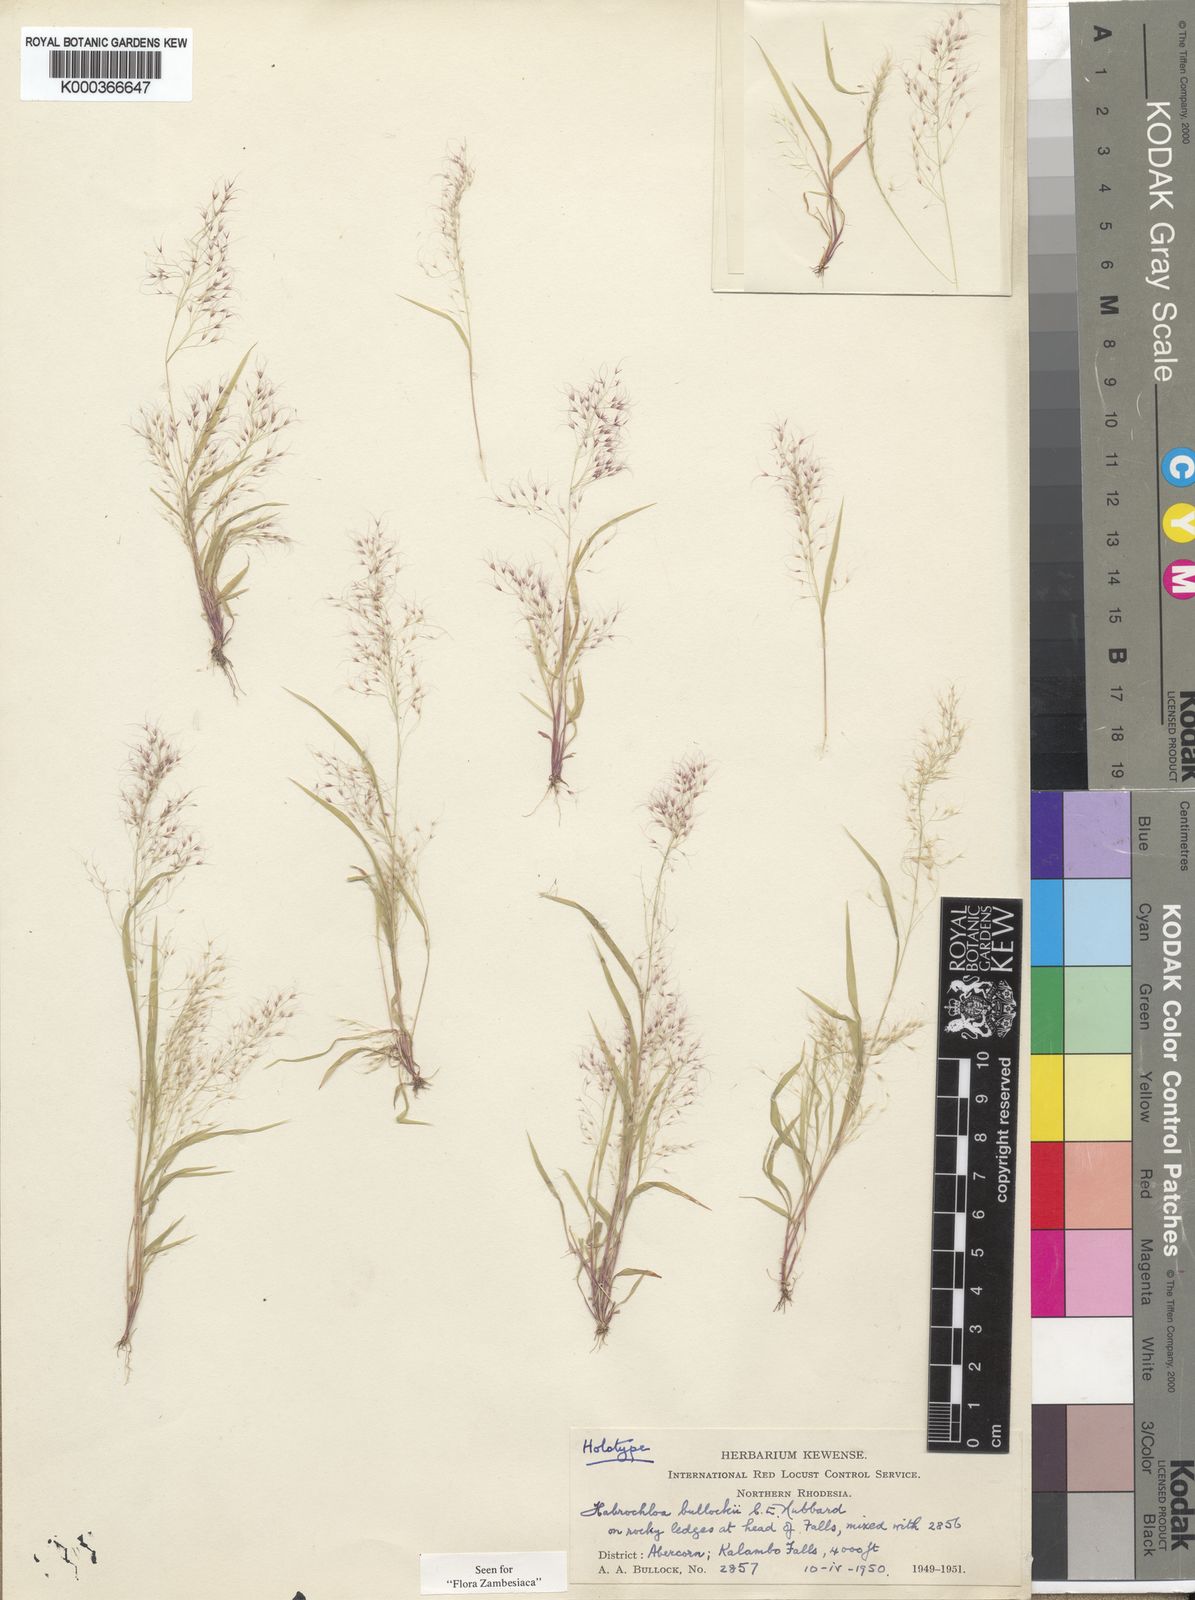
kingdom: Plantae
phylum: Tracheophyta
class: Liliopsida
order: Poales
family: Poaceae
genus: Habrochloa
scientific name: Habrochloa bullockii
